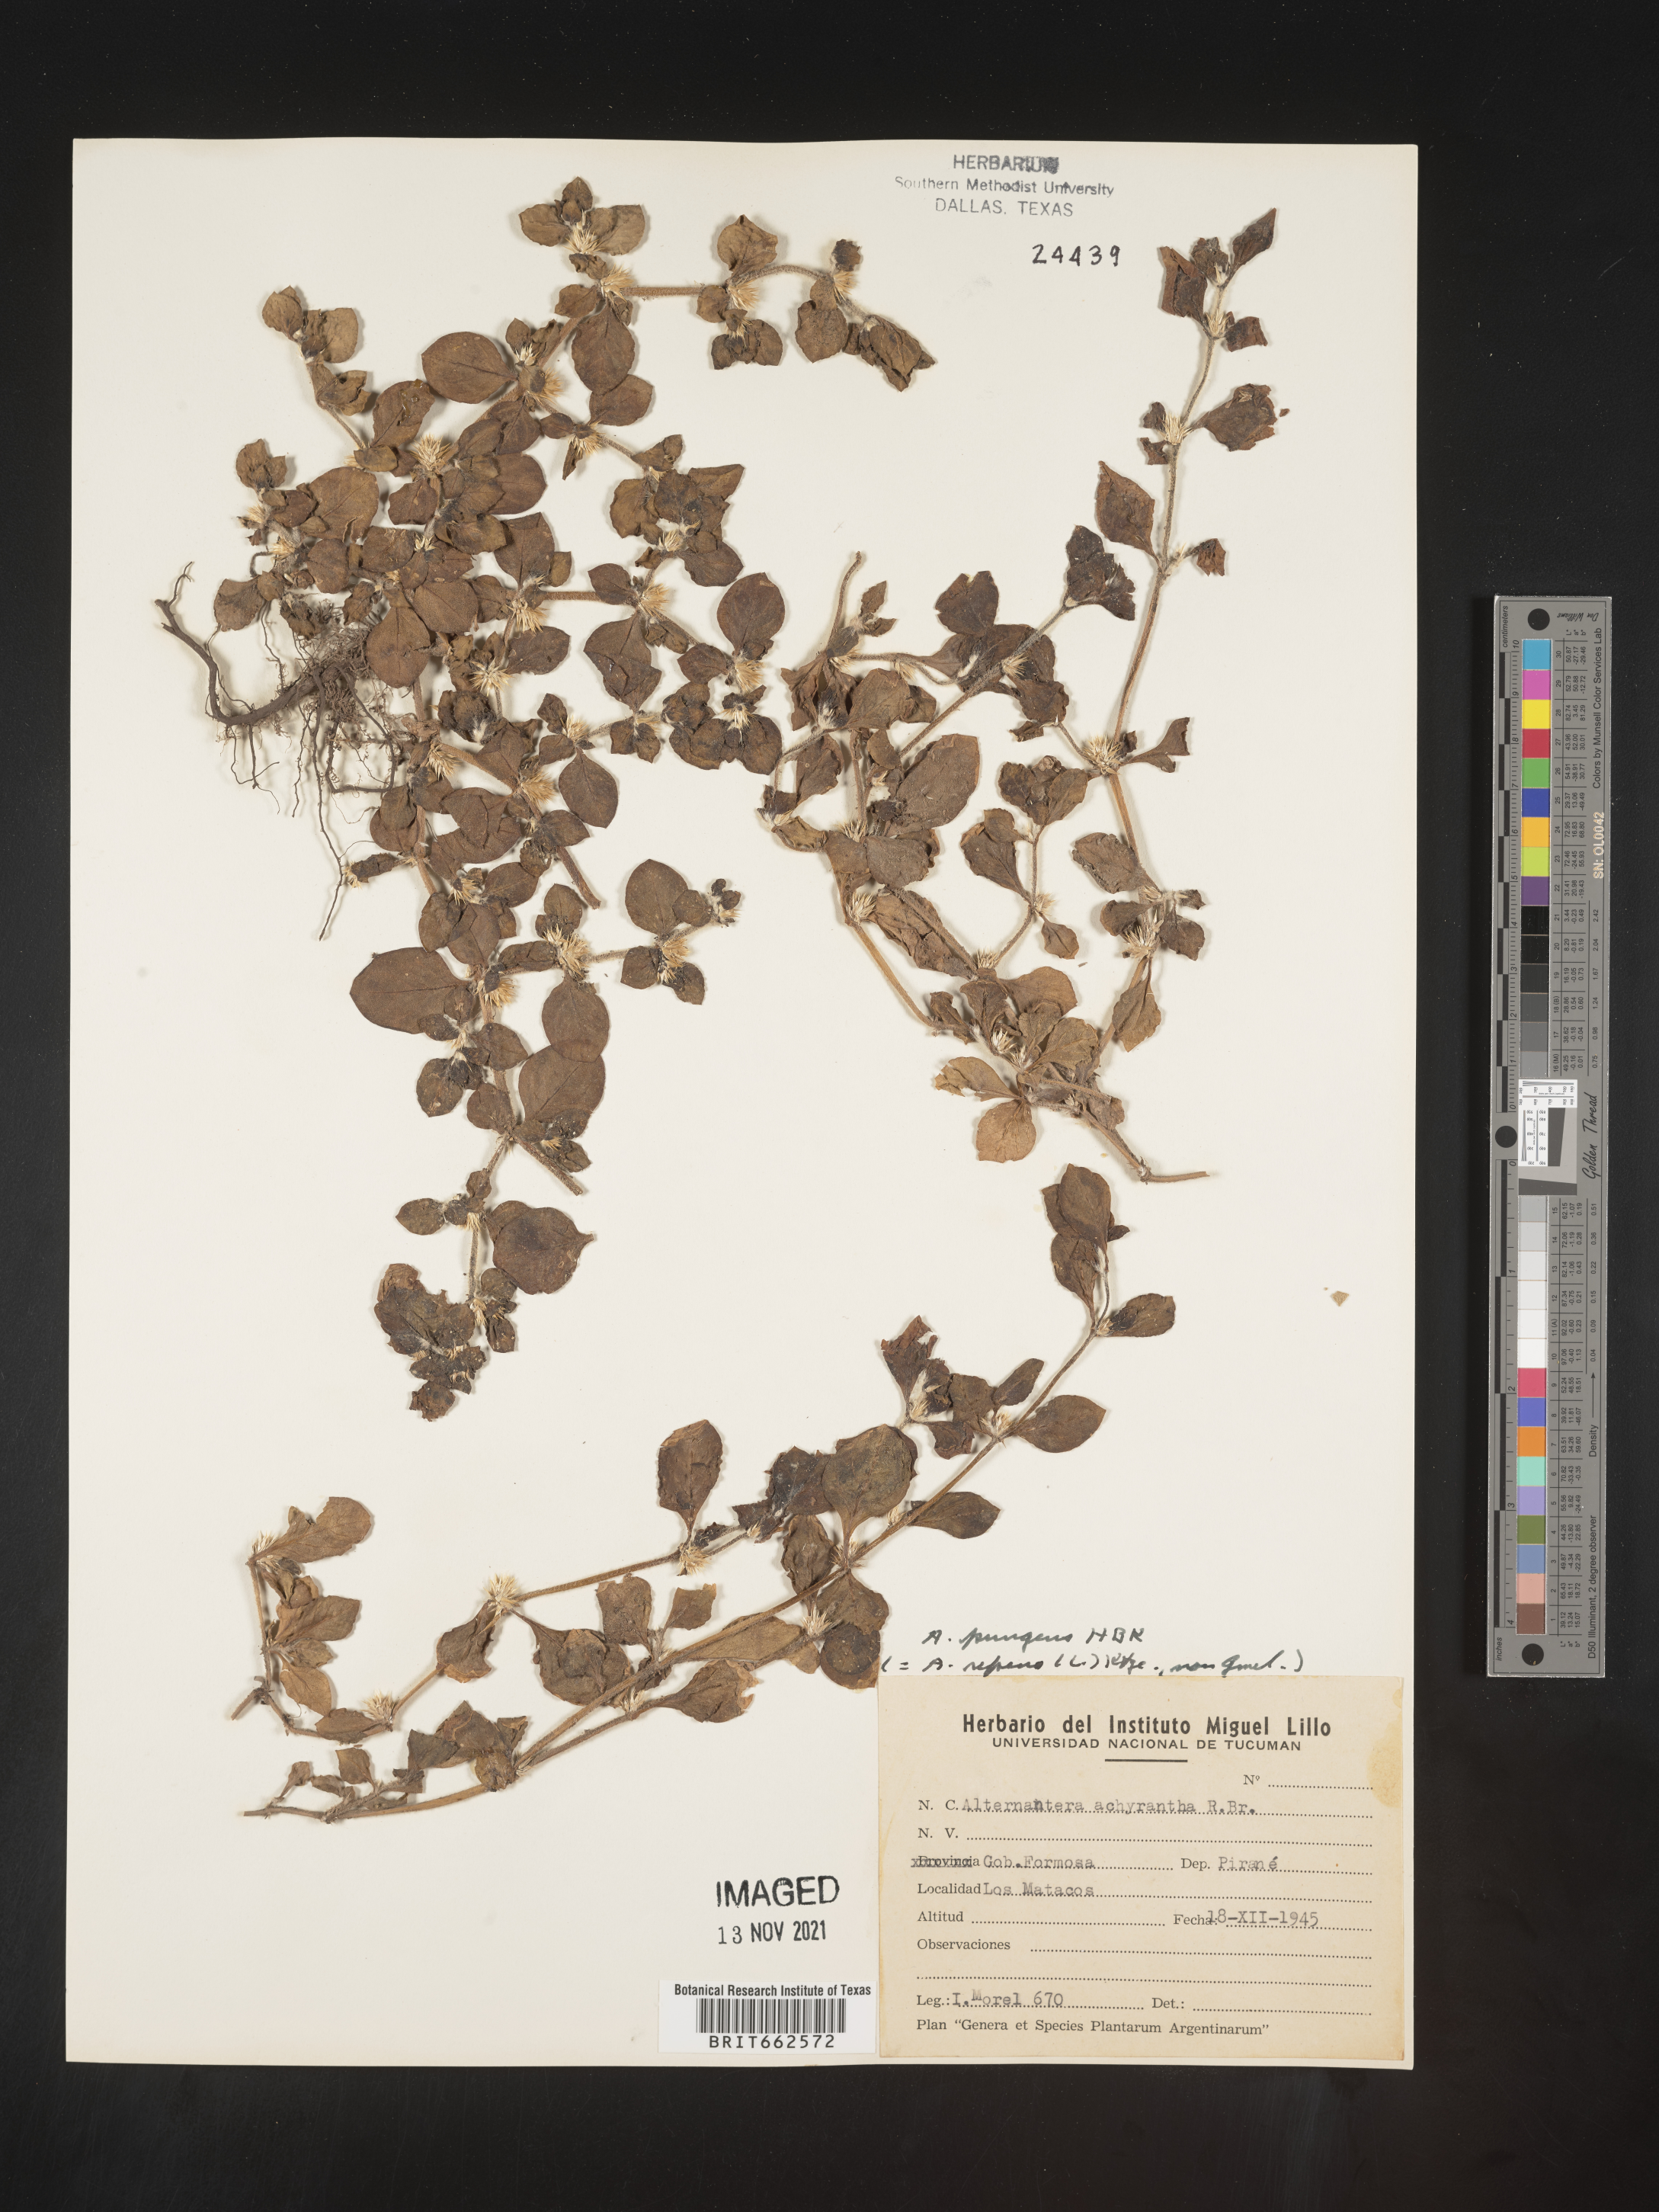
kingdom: Plantae
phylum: Tracheophyta
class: Magnoliopsida
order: Caryophyllales
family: Amaranthaceae
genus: Alternanthera
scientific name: Alternanthera
